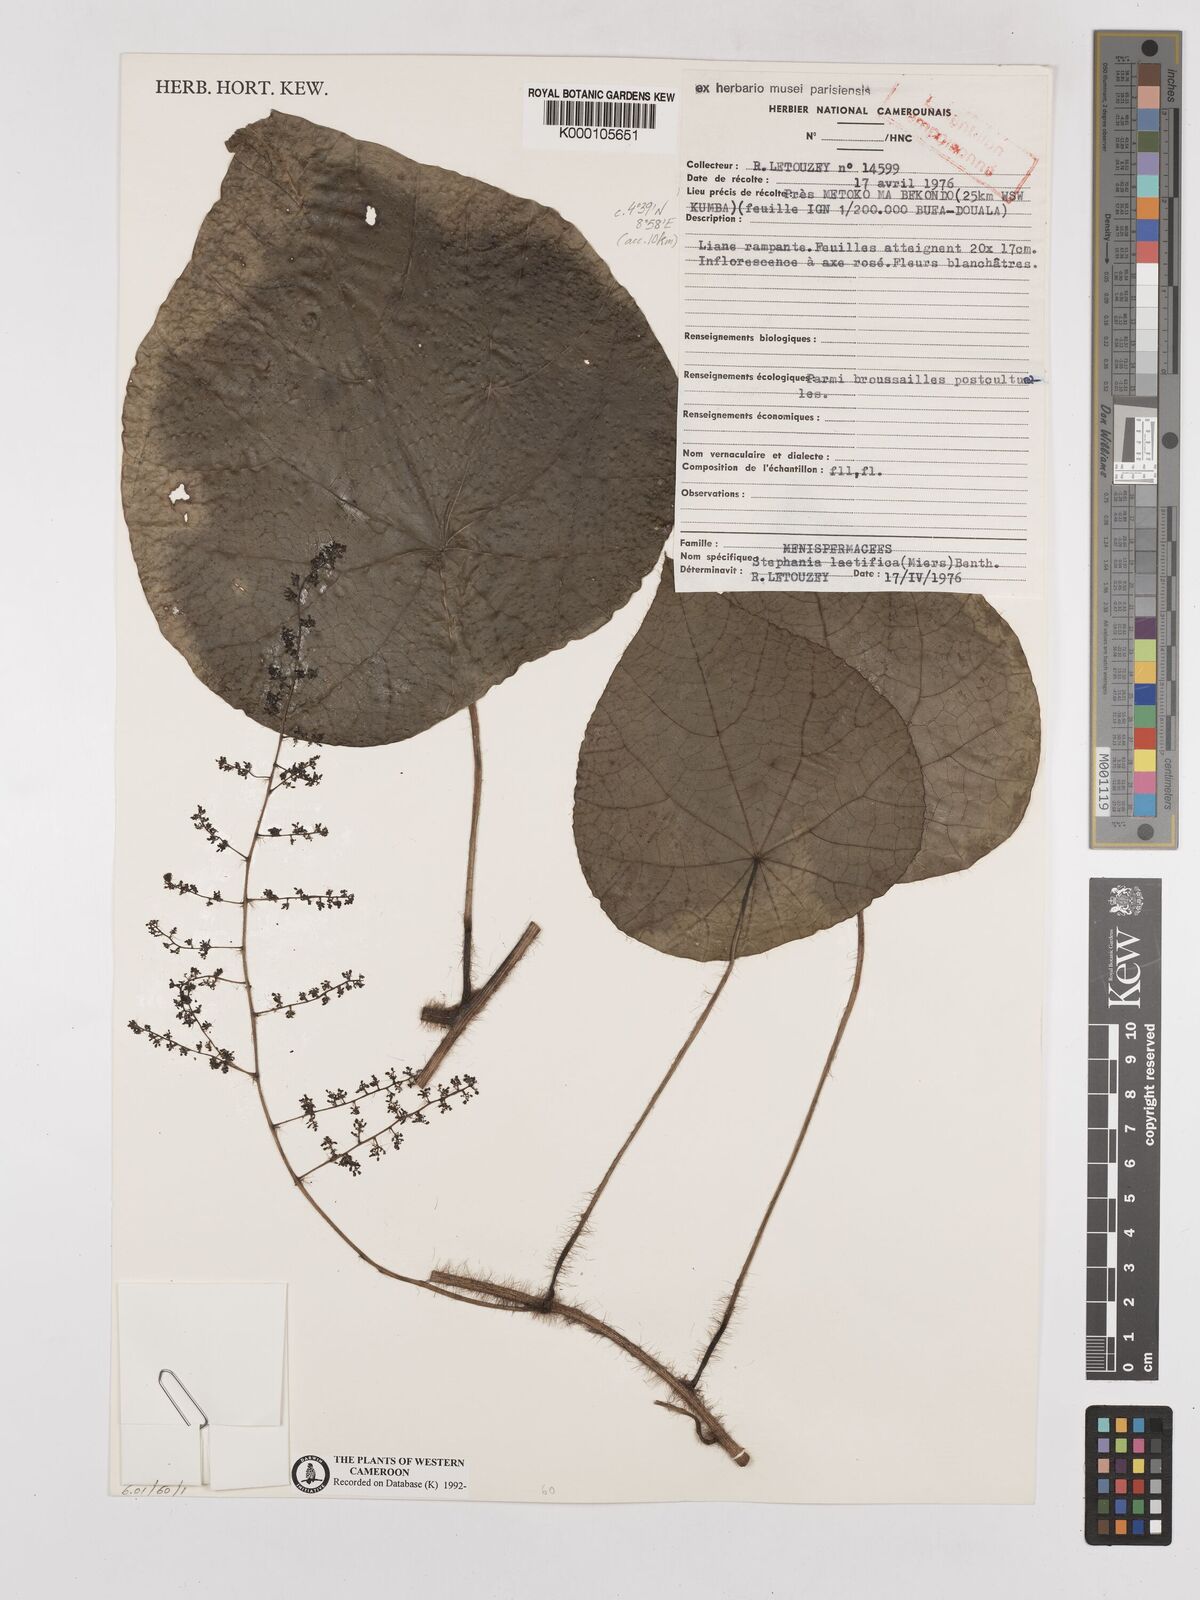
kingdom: Plantae
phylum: Tracheophyta
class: Magnoliopsida
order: Ranunculales
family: Menispermaceae
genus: Perichasma
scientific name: Perichasma laetificata
